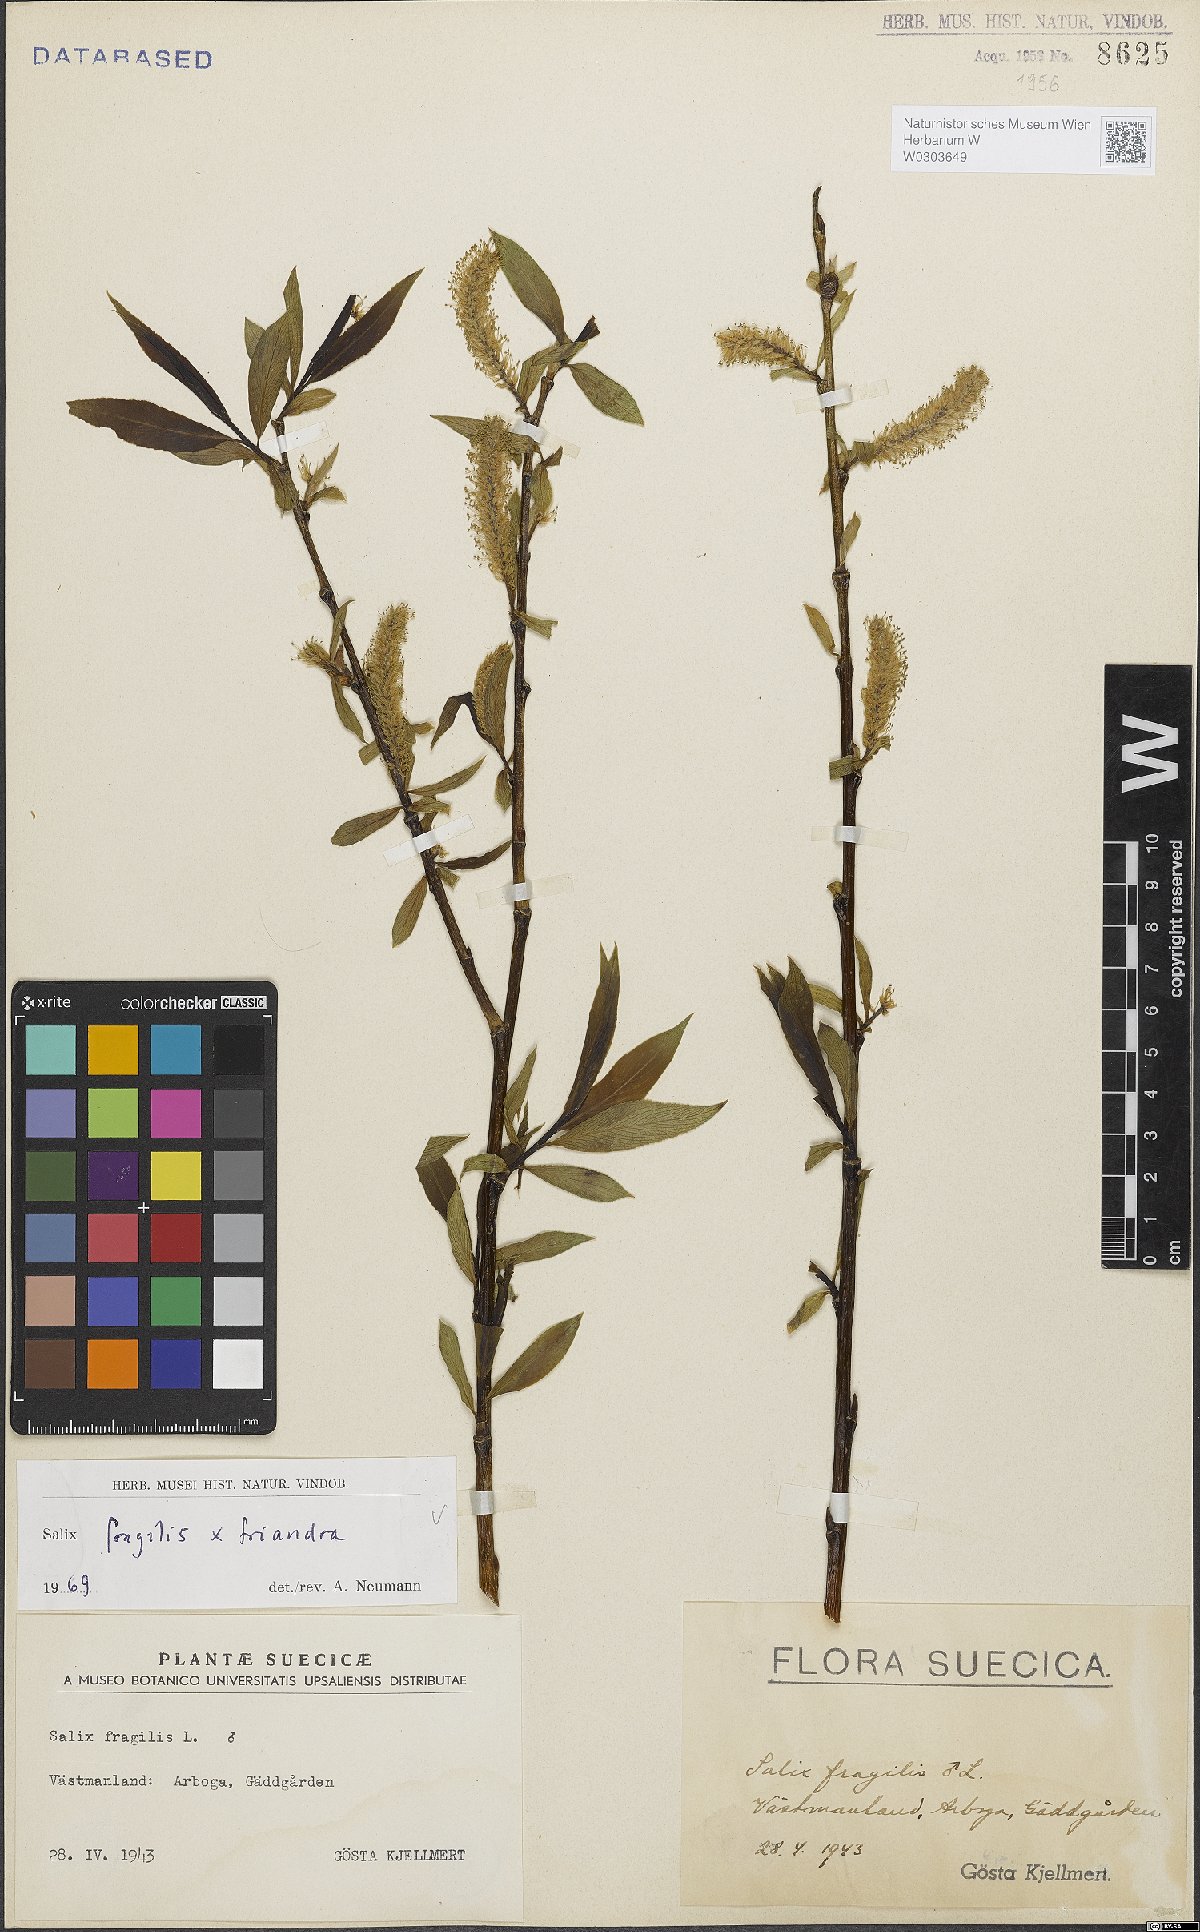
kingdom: Plantae
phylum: Tracheophyta
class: Magnoliopsida
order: Malpighiales
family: Salicaceae
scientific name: Salicaceae
